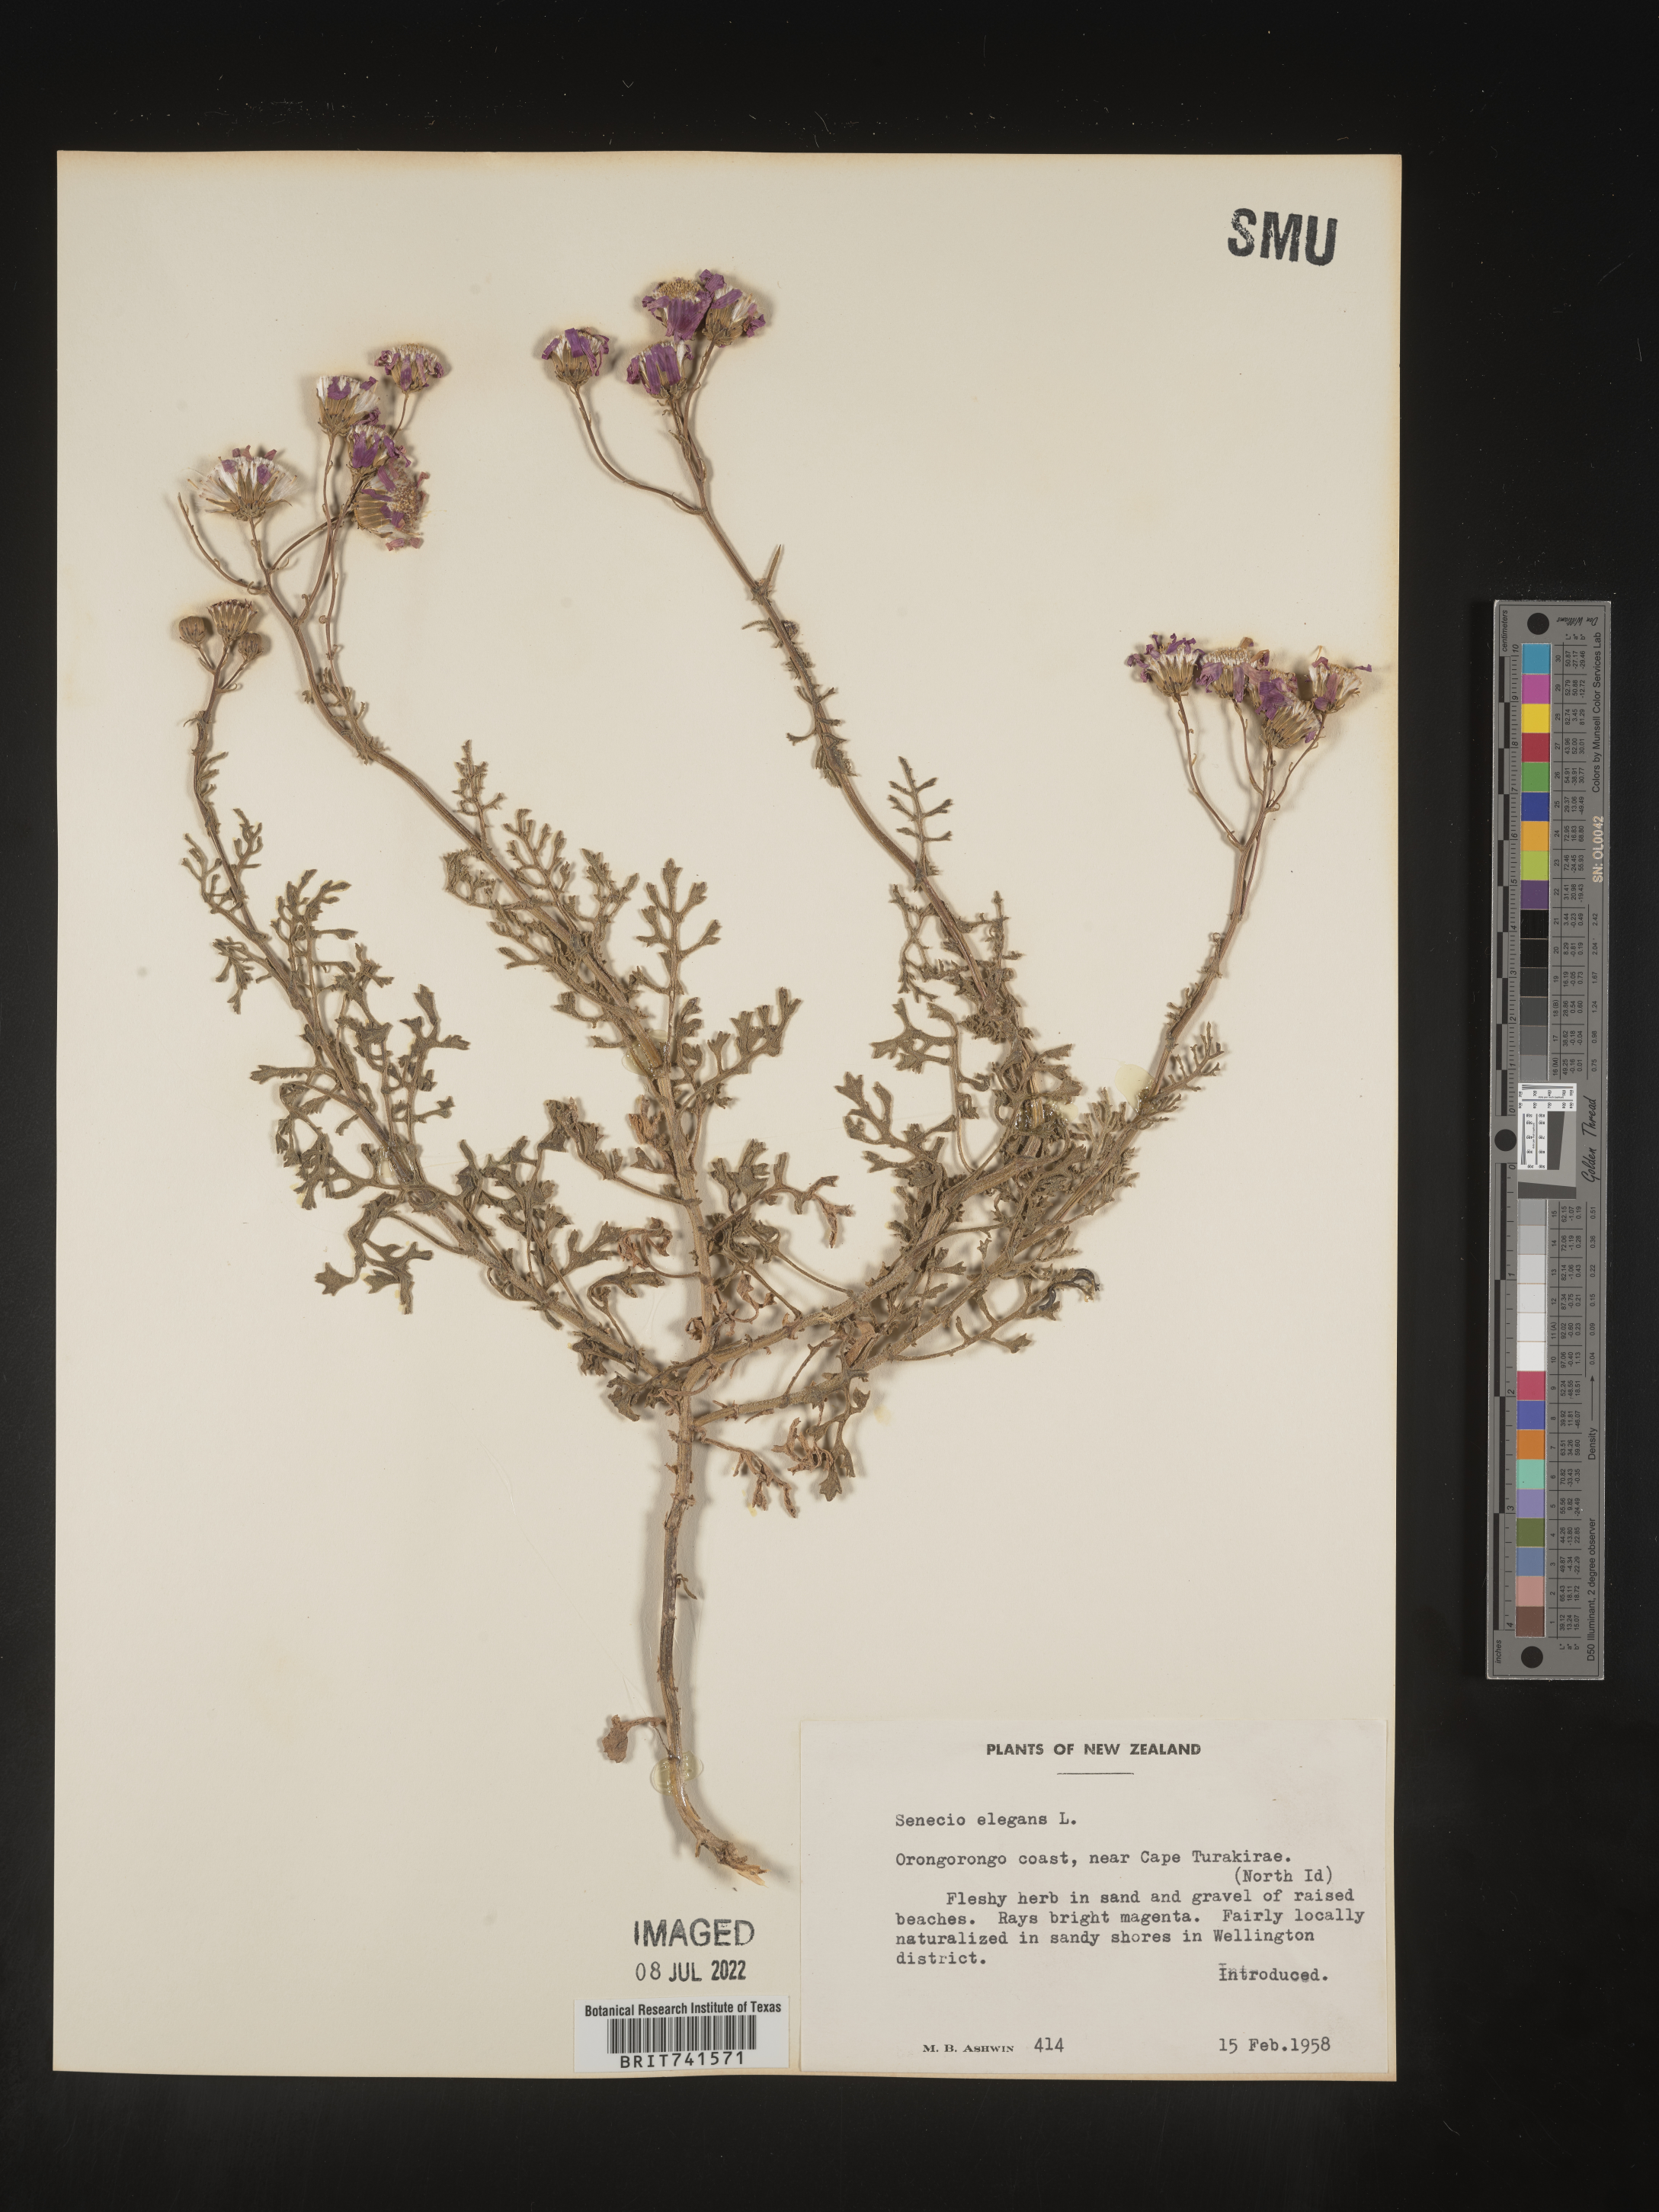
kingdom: Plantae
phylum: Tracheophyta
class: Magnoliopsida
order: Asterales
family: Asteraceae
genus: Senecio
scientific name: Senecio
